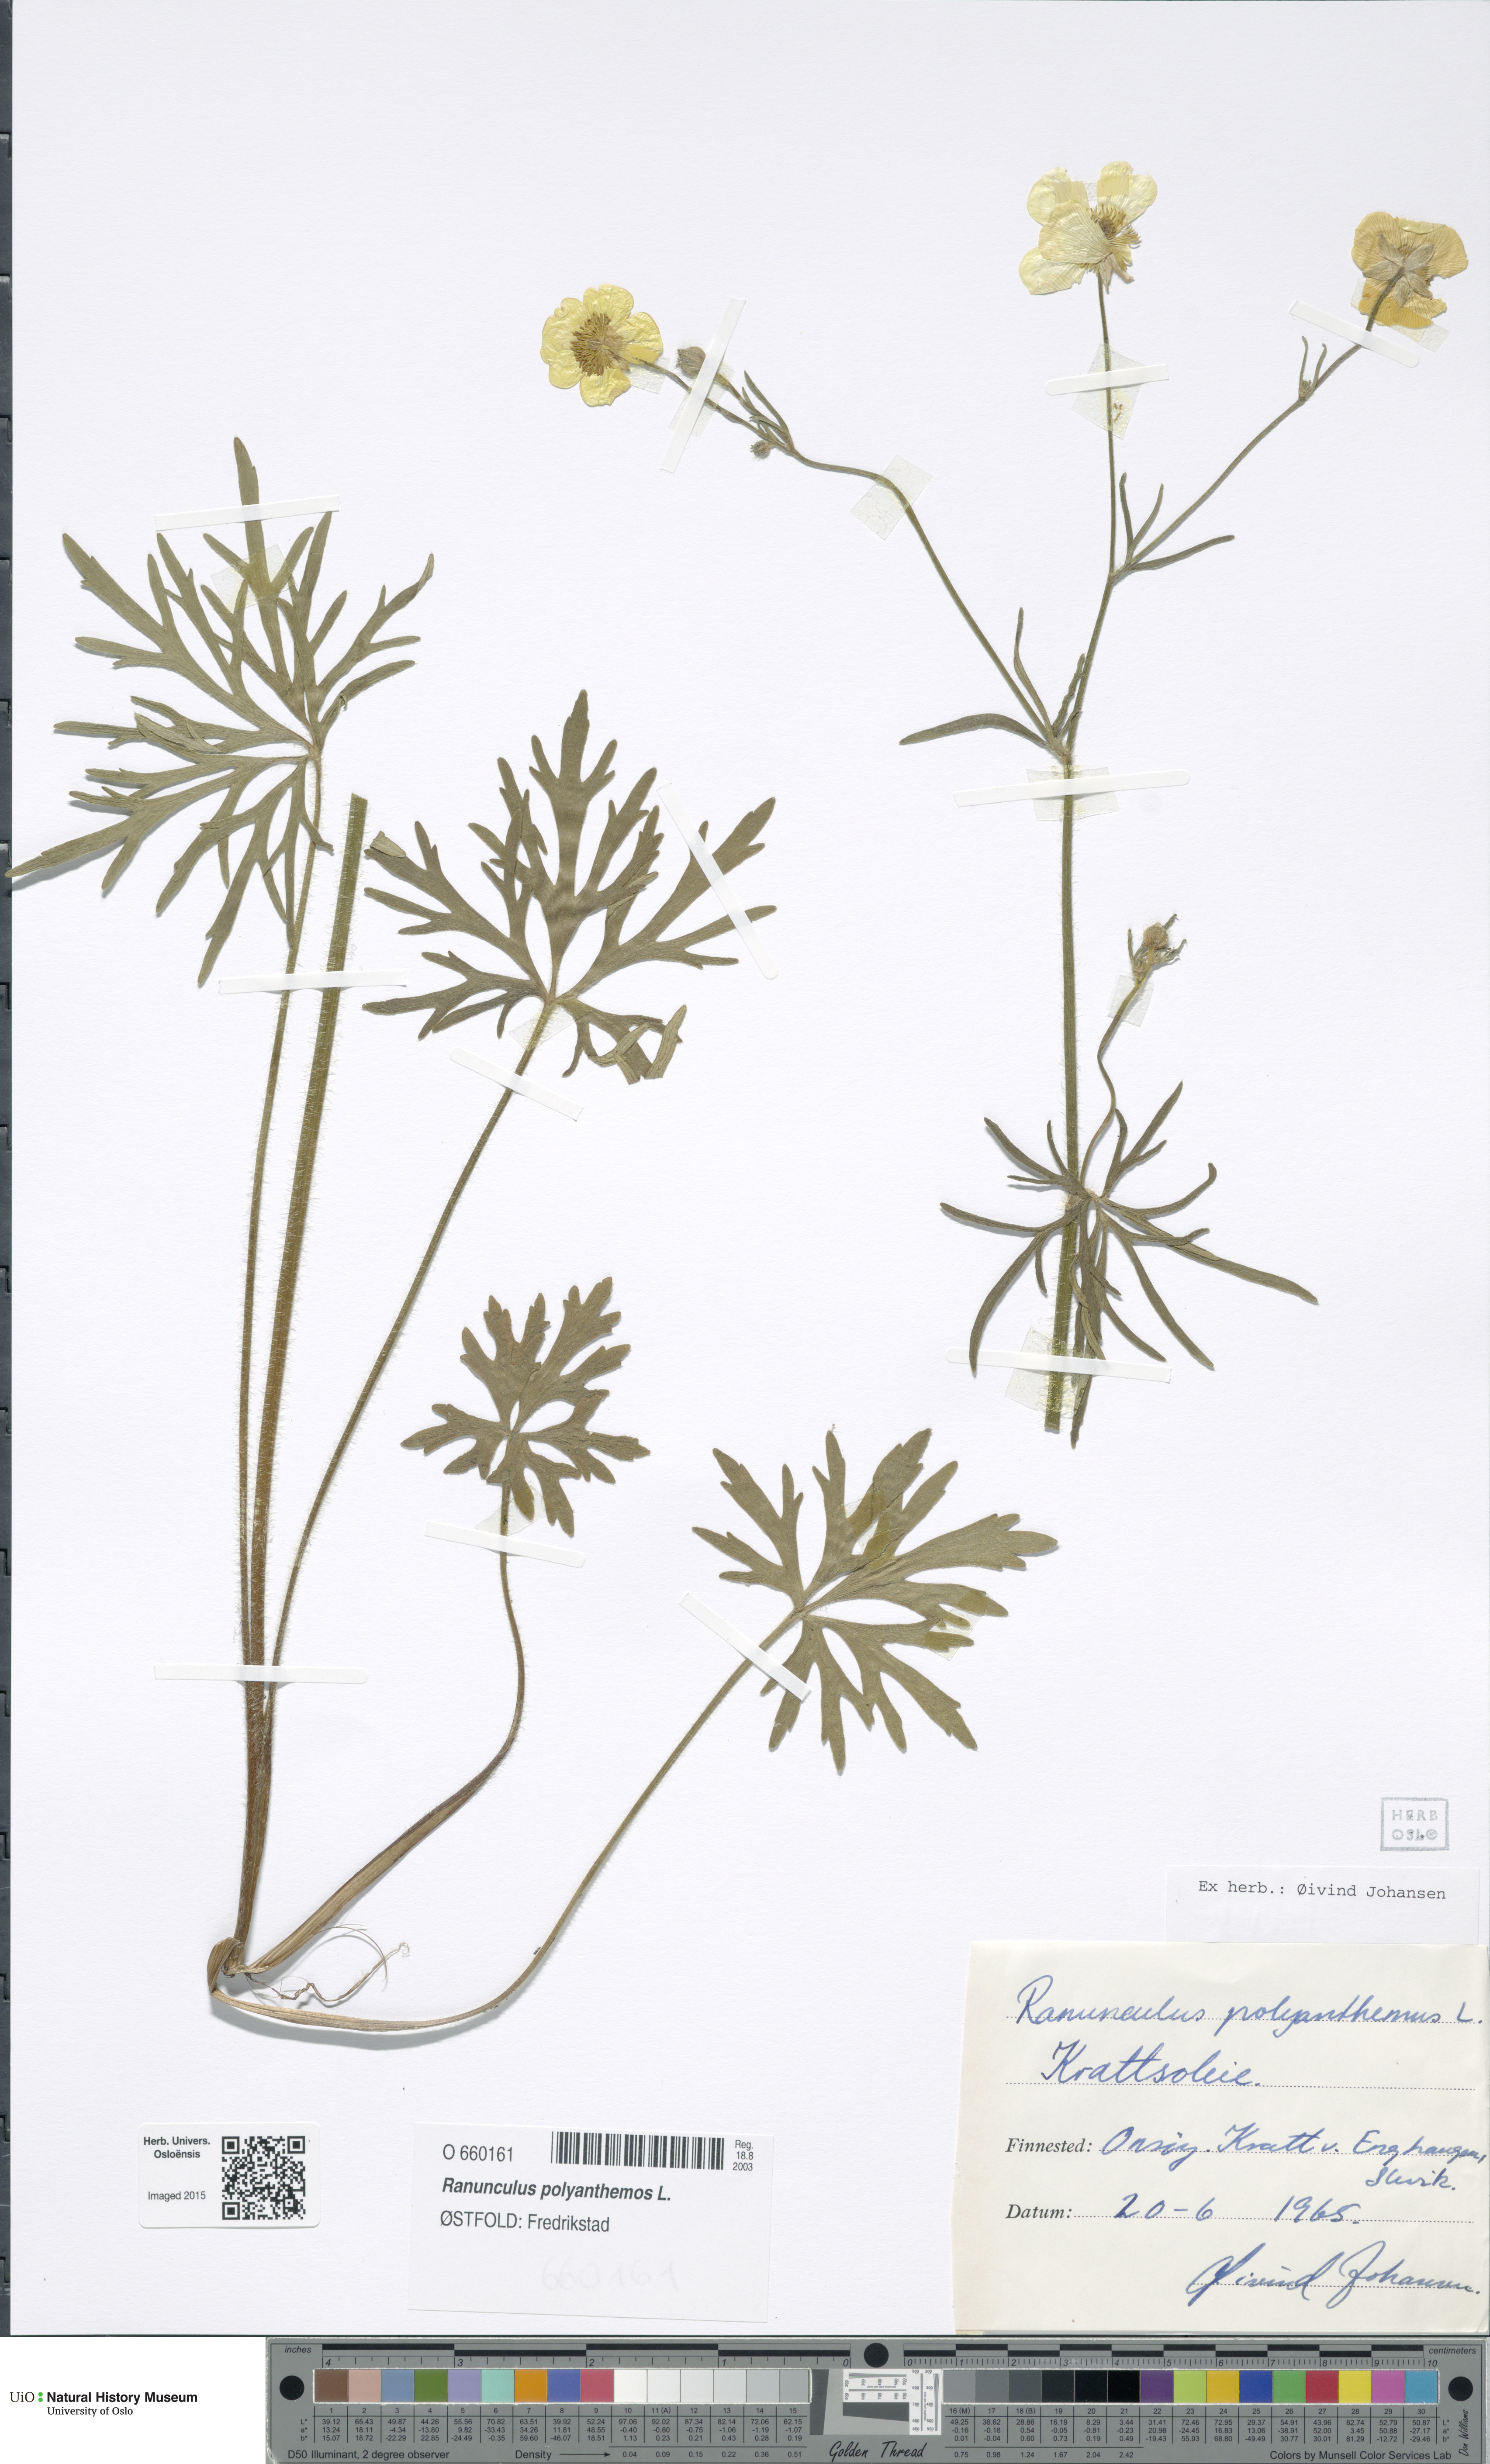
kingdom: Plantae
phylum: Tracheophyta
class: Magnoliopsida
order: Ranunculales
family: Ranunculaceae
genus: Ranunculus
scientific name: Ranunculus polyanthemos
